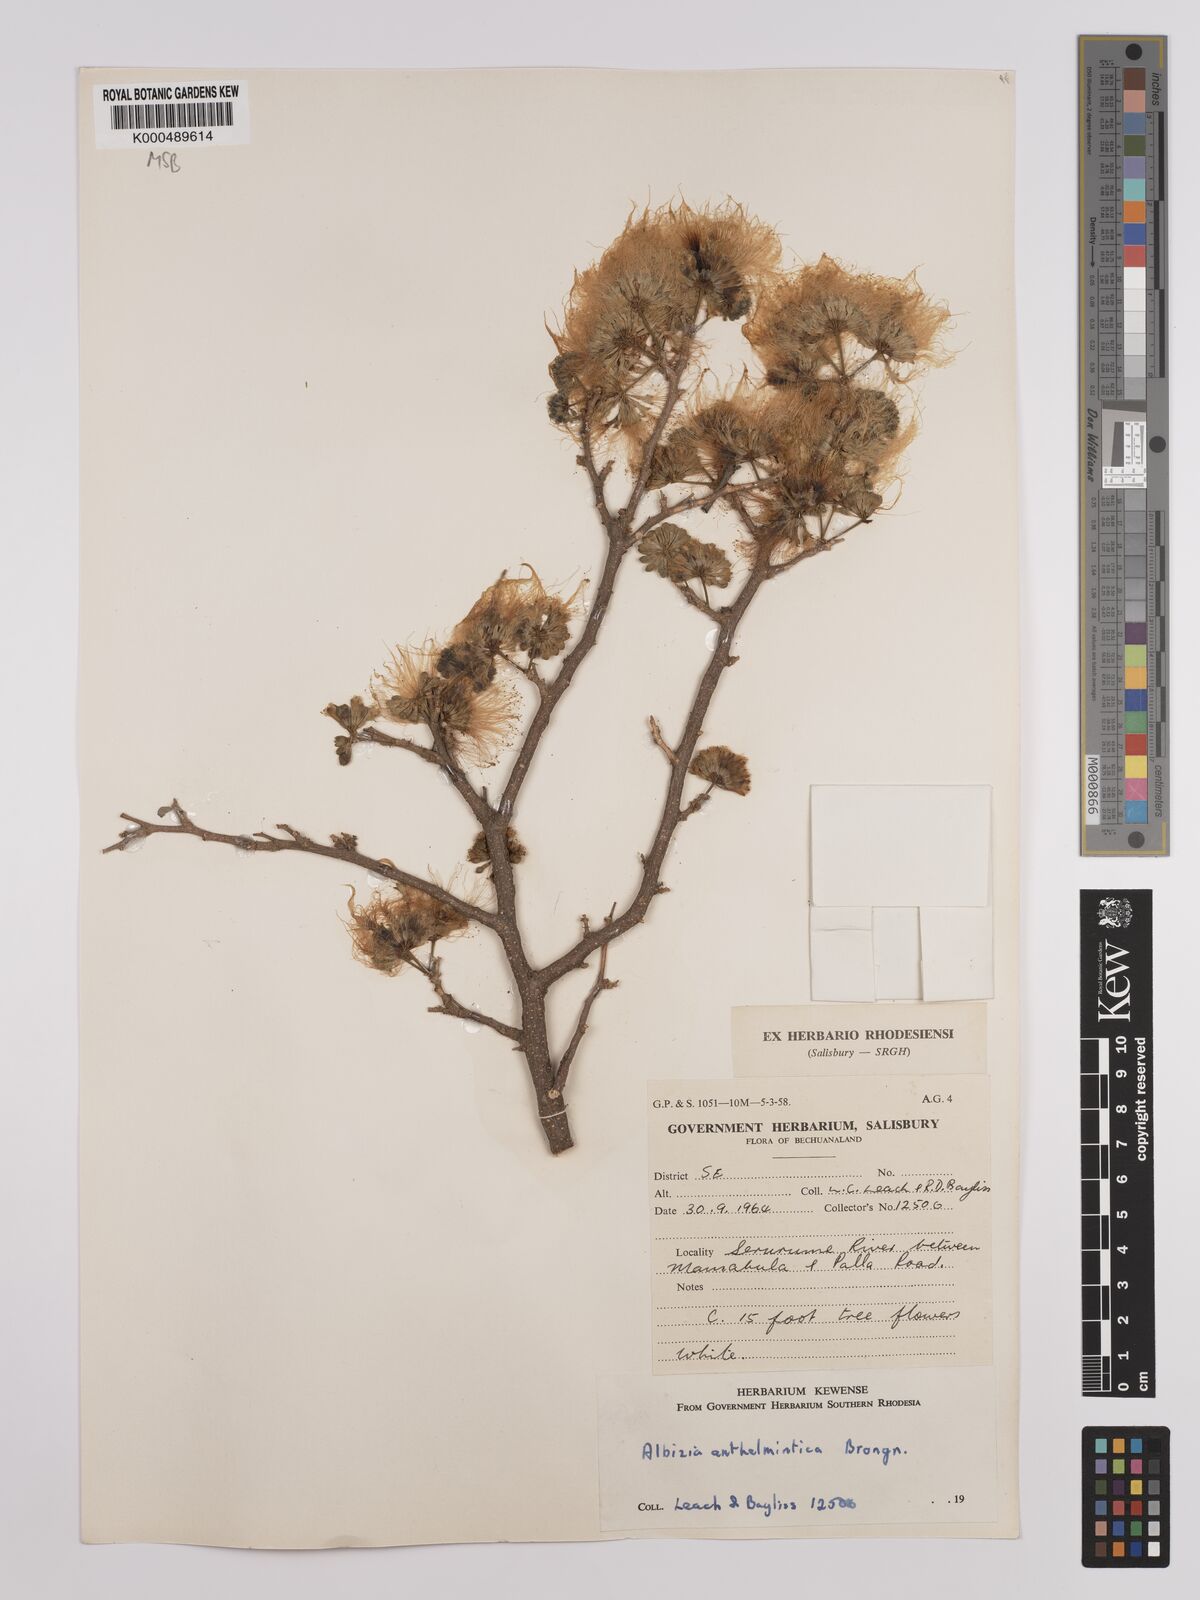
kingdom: Plantae
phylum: Tracheophyta
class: Magnoliopsida
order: Fabales
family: Fabaceae
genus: Albizia
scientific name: Albizia anthelmintica
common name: Worm-bark false-thorn
